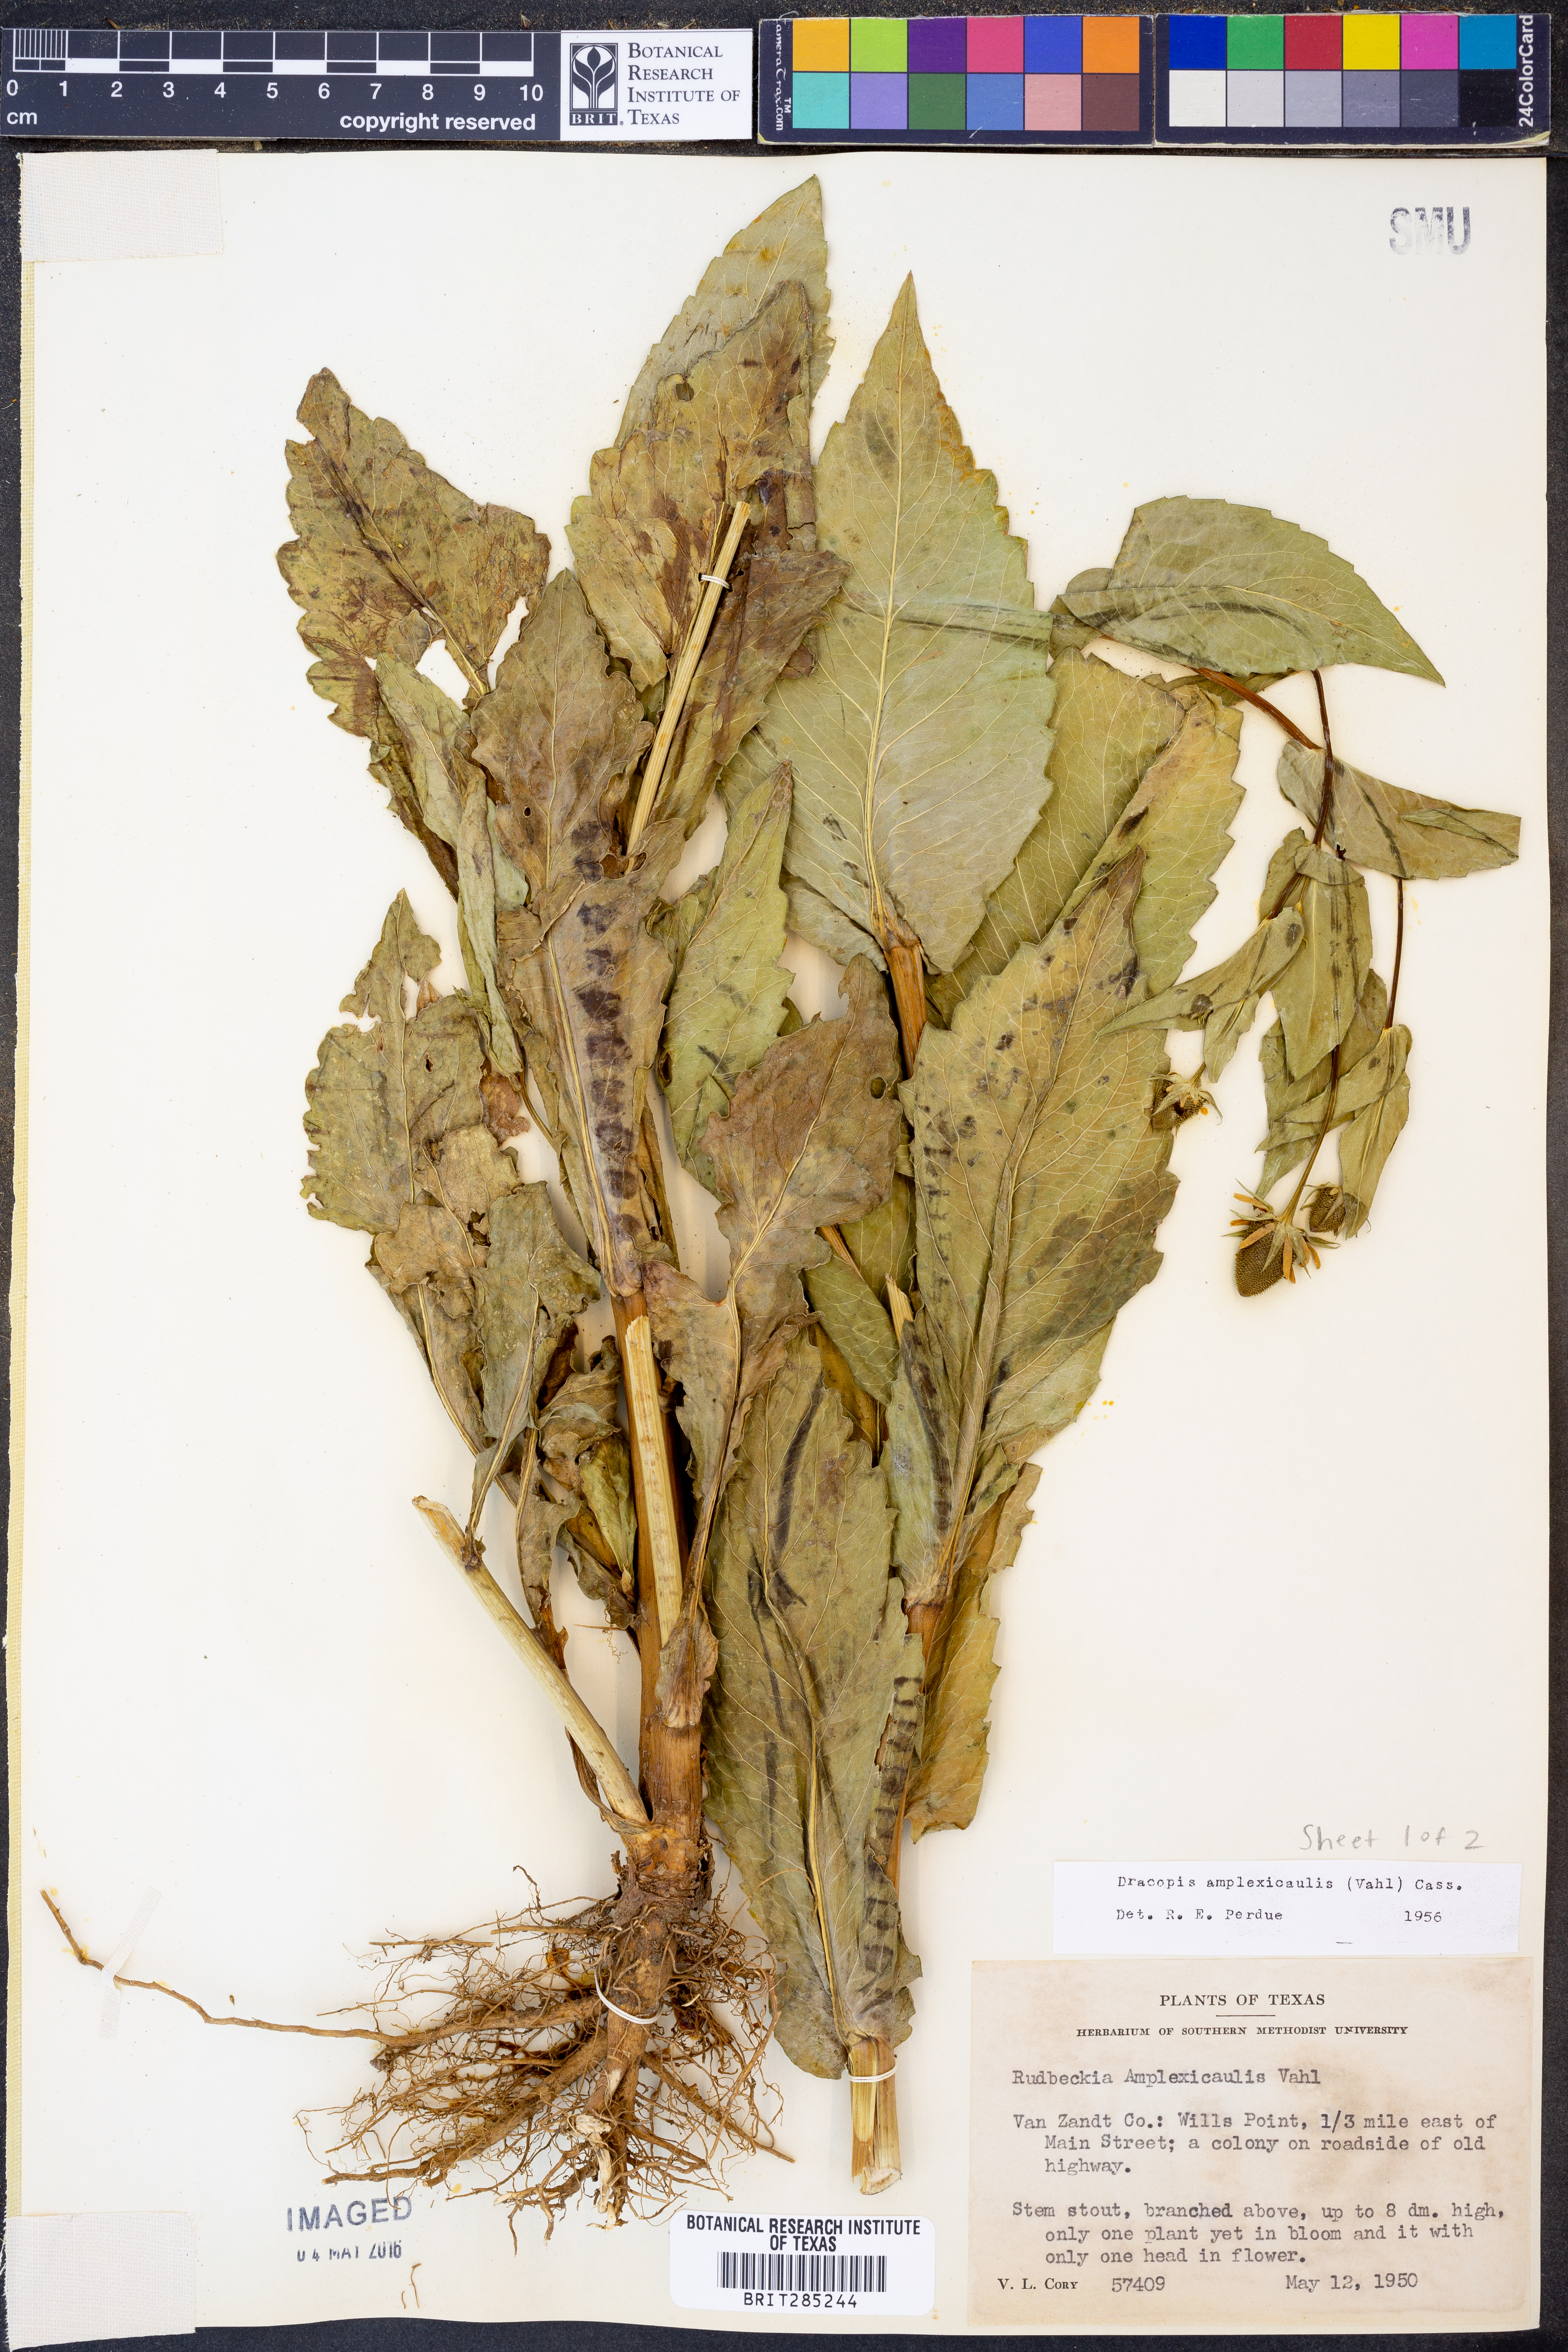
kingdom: Plantae
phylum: Tracheophyta
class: Magnoliopsida
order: Asterales
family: Asteraceae
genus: Rudbeckia
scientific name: Rudbeckia amplexicaulis
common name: Clasping-leaf coneflower
